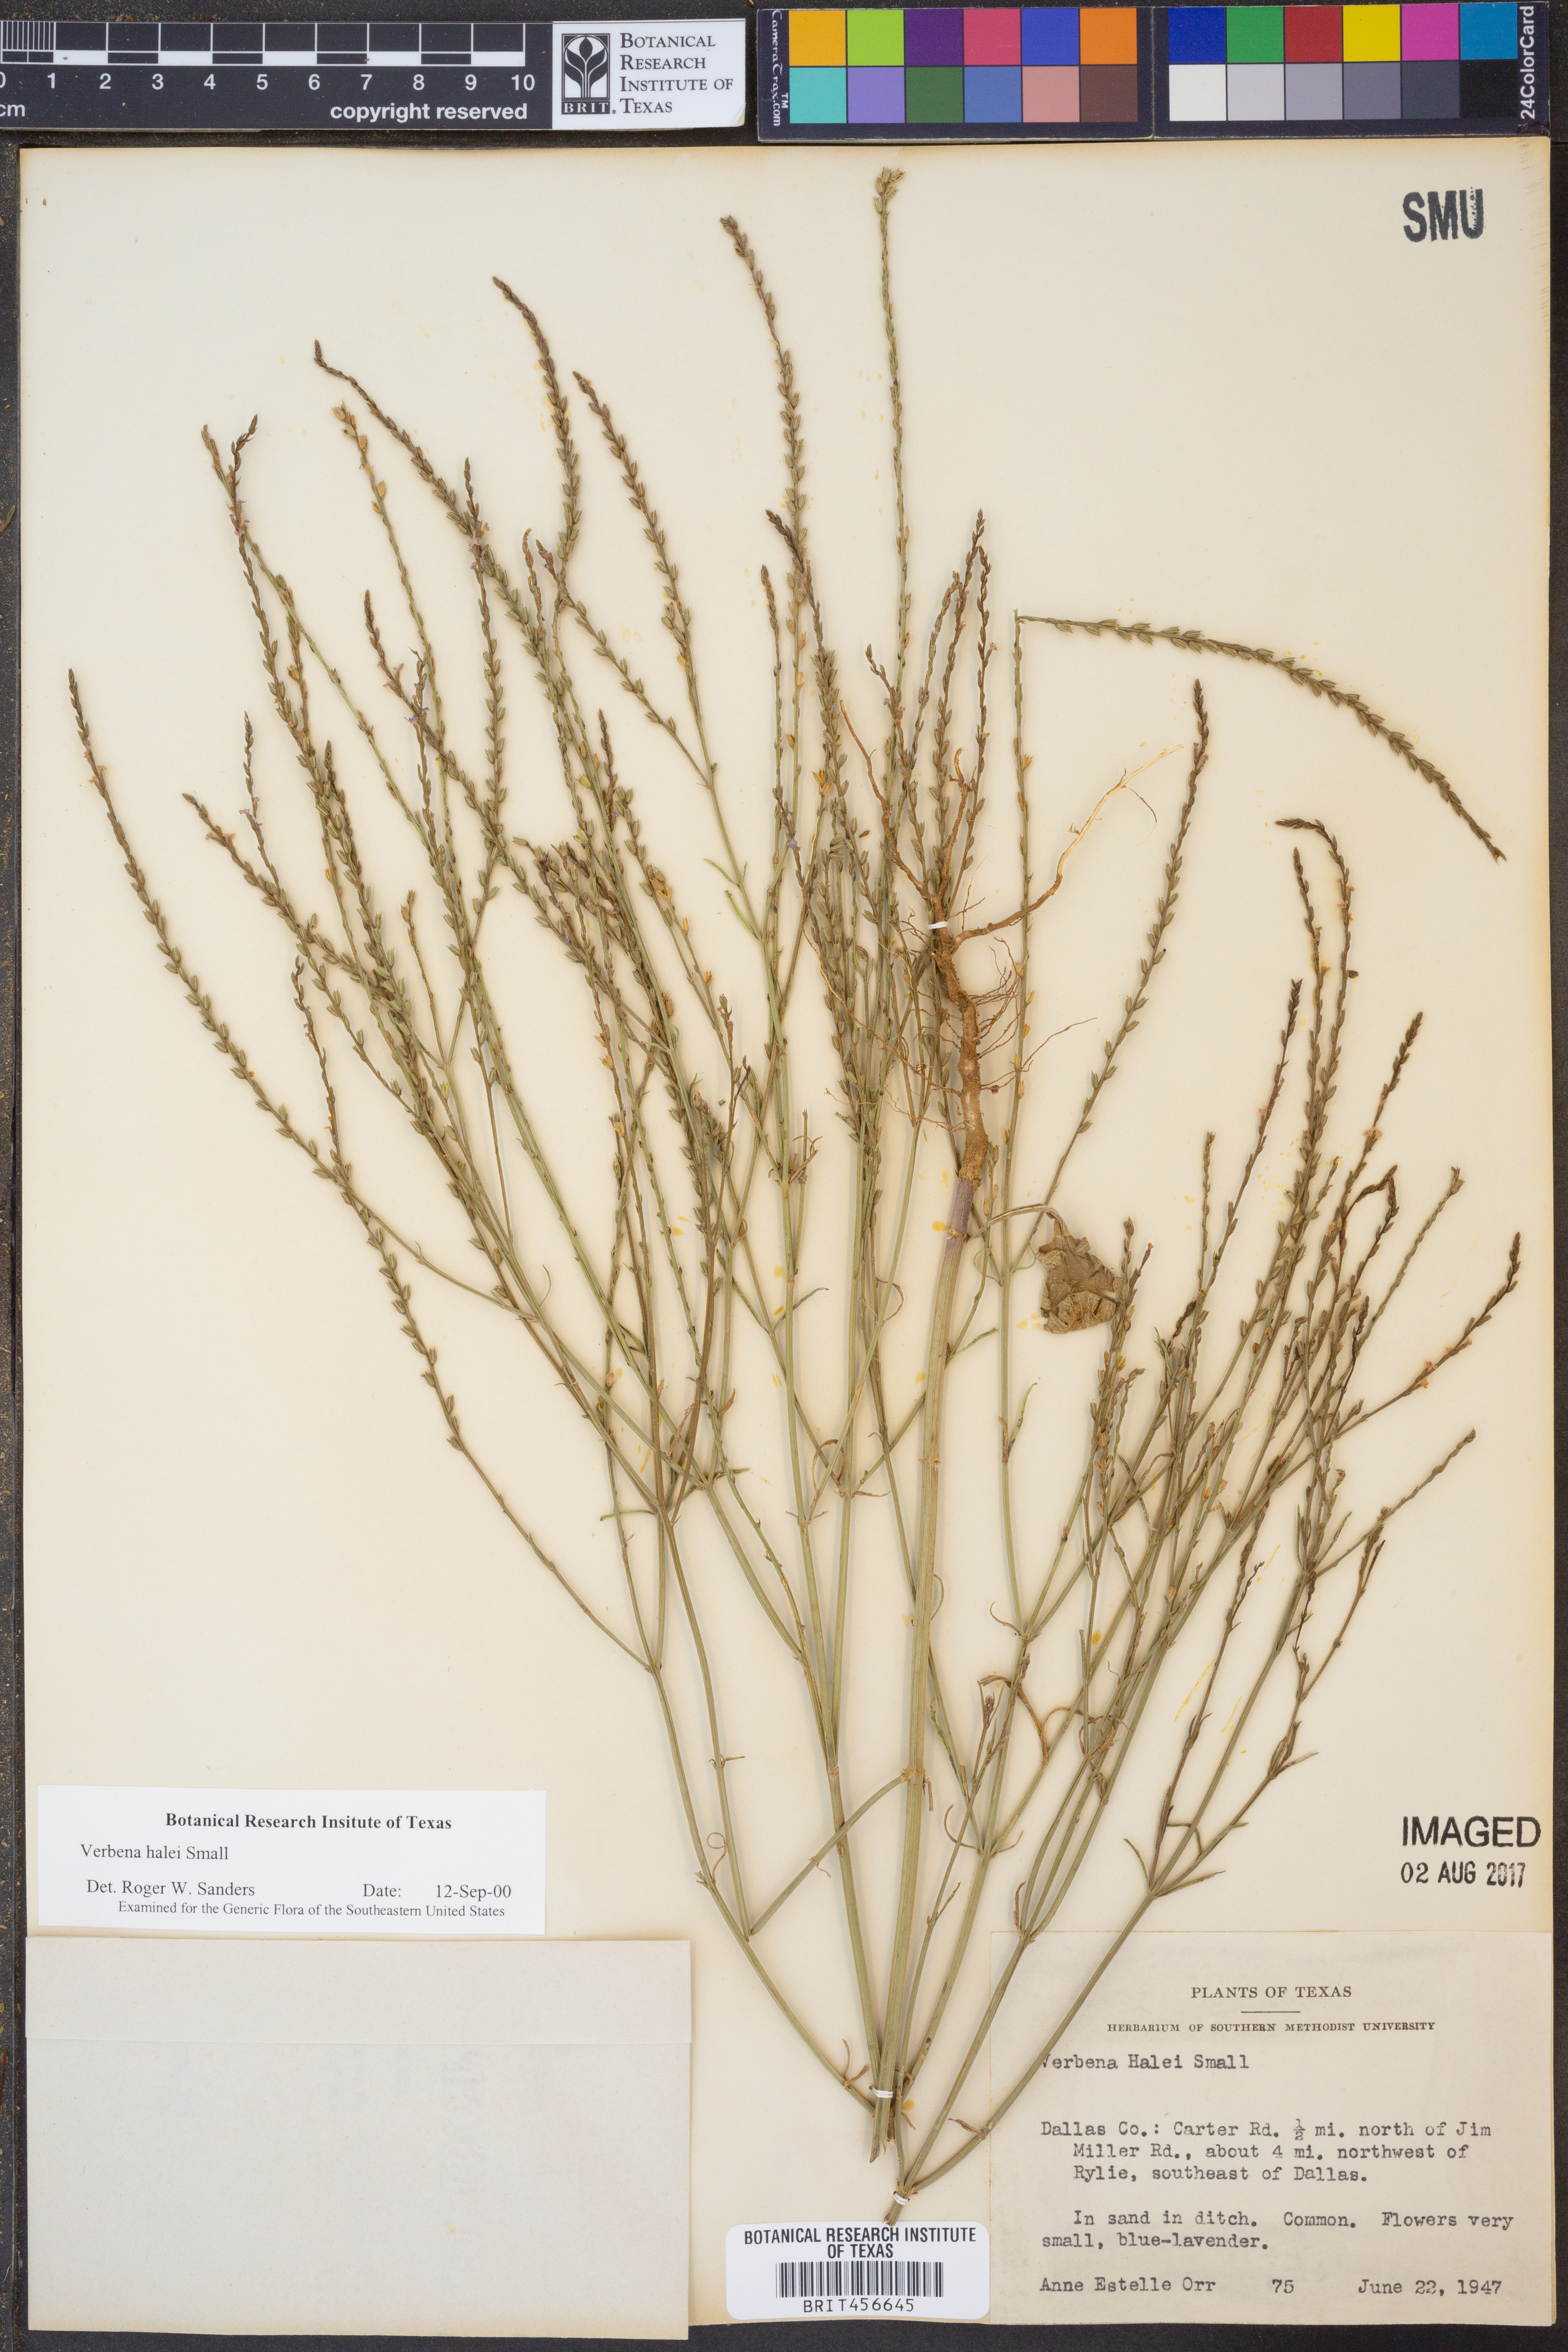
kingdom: Plantae
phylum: Tracheophyta
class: Magnoliopsida
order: Lamiales
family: Verbenaceae
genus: Verbena
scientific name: Verbena halei
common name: Texas vervain
